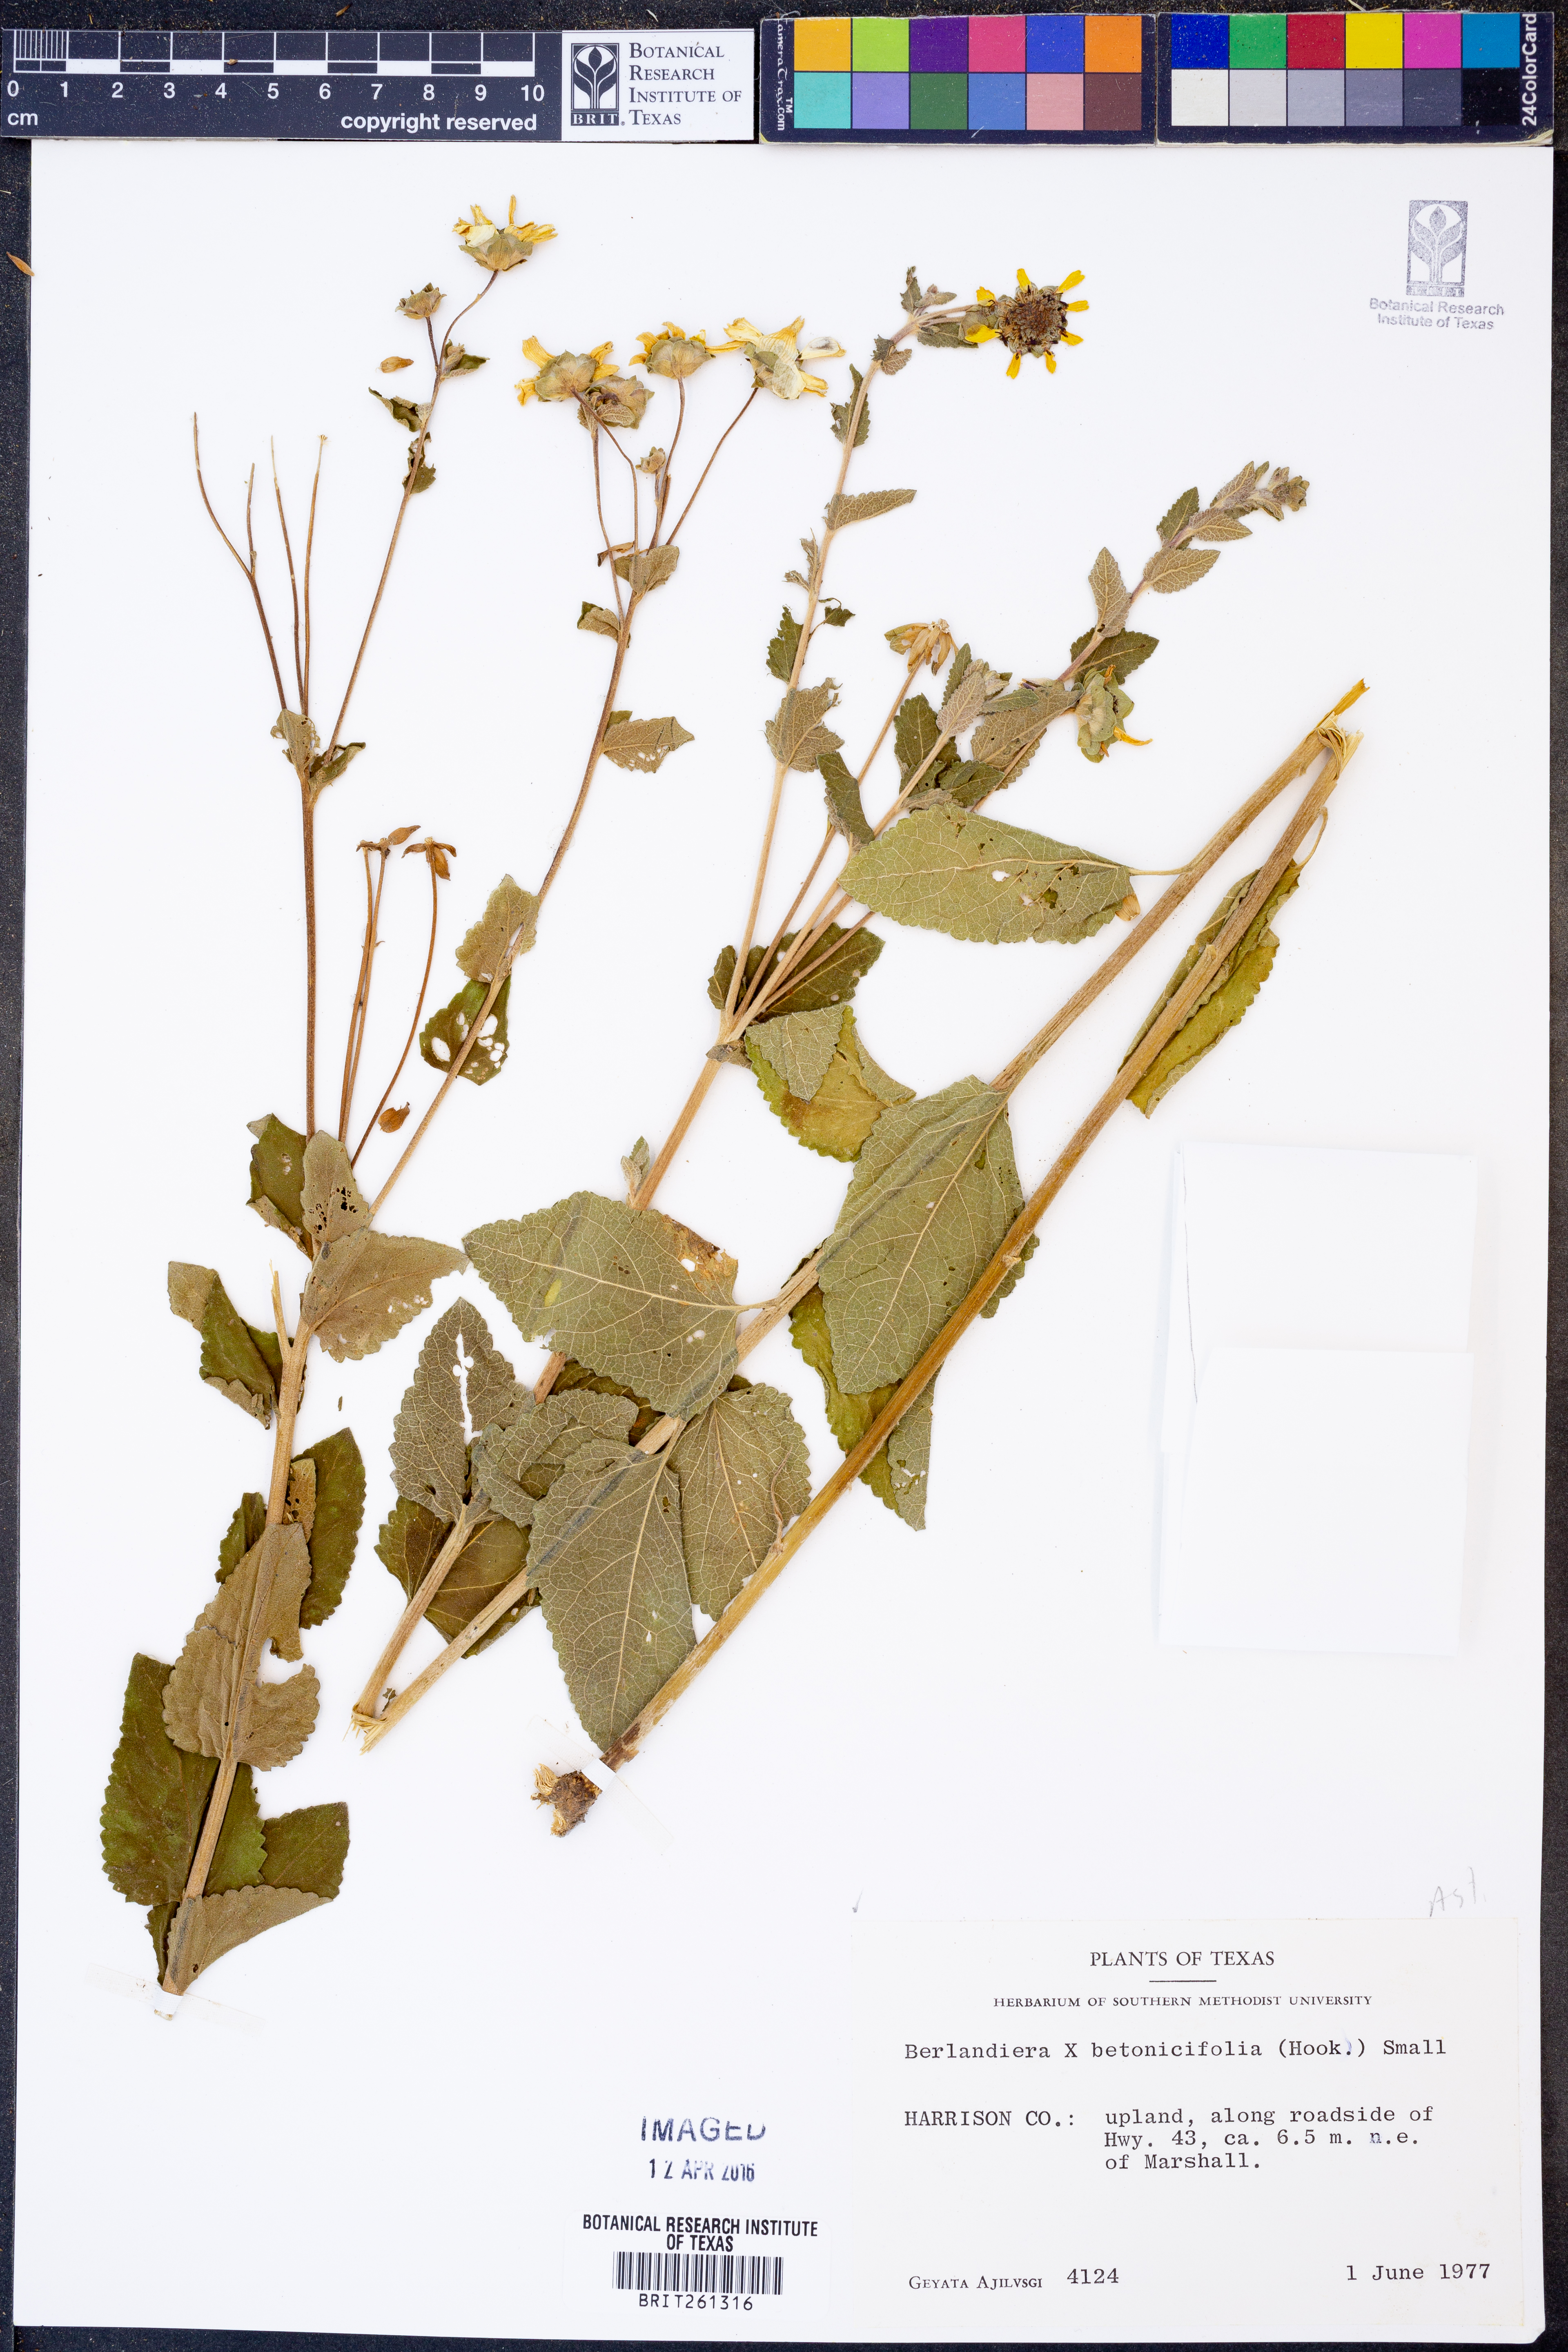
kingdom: Plantae
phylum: Tracheophyta
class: Magnoliopsida
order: Asterales
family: Asteraceae
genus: Berlandiera
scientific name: Berlandiera betonicifolia
